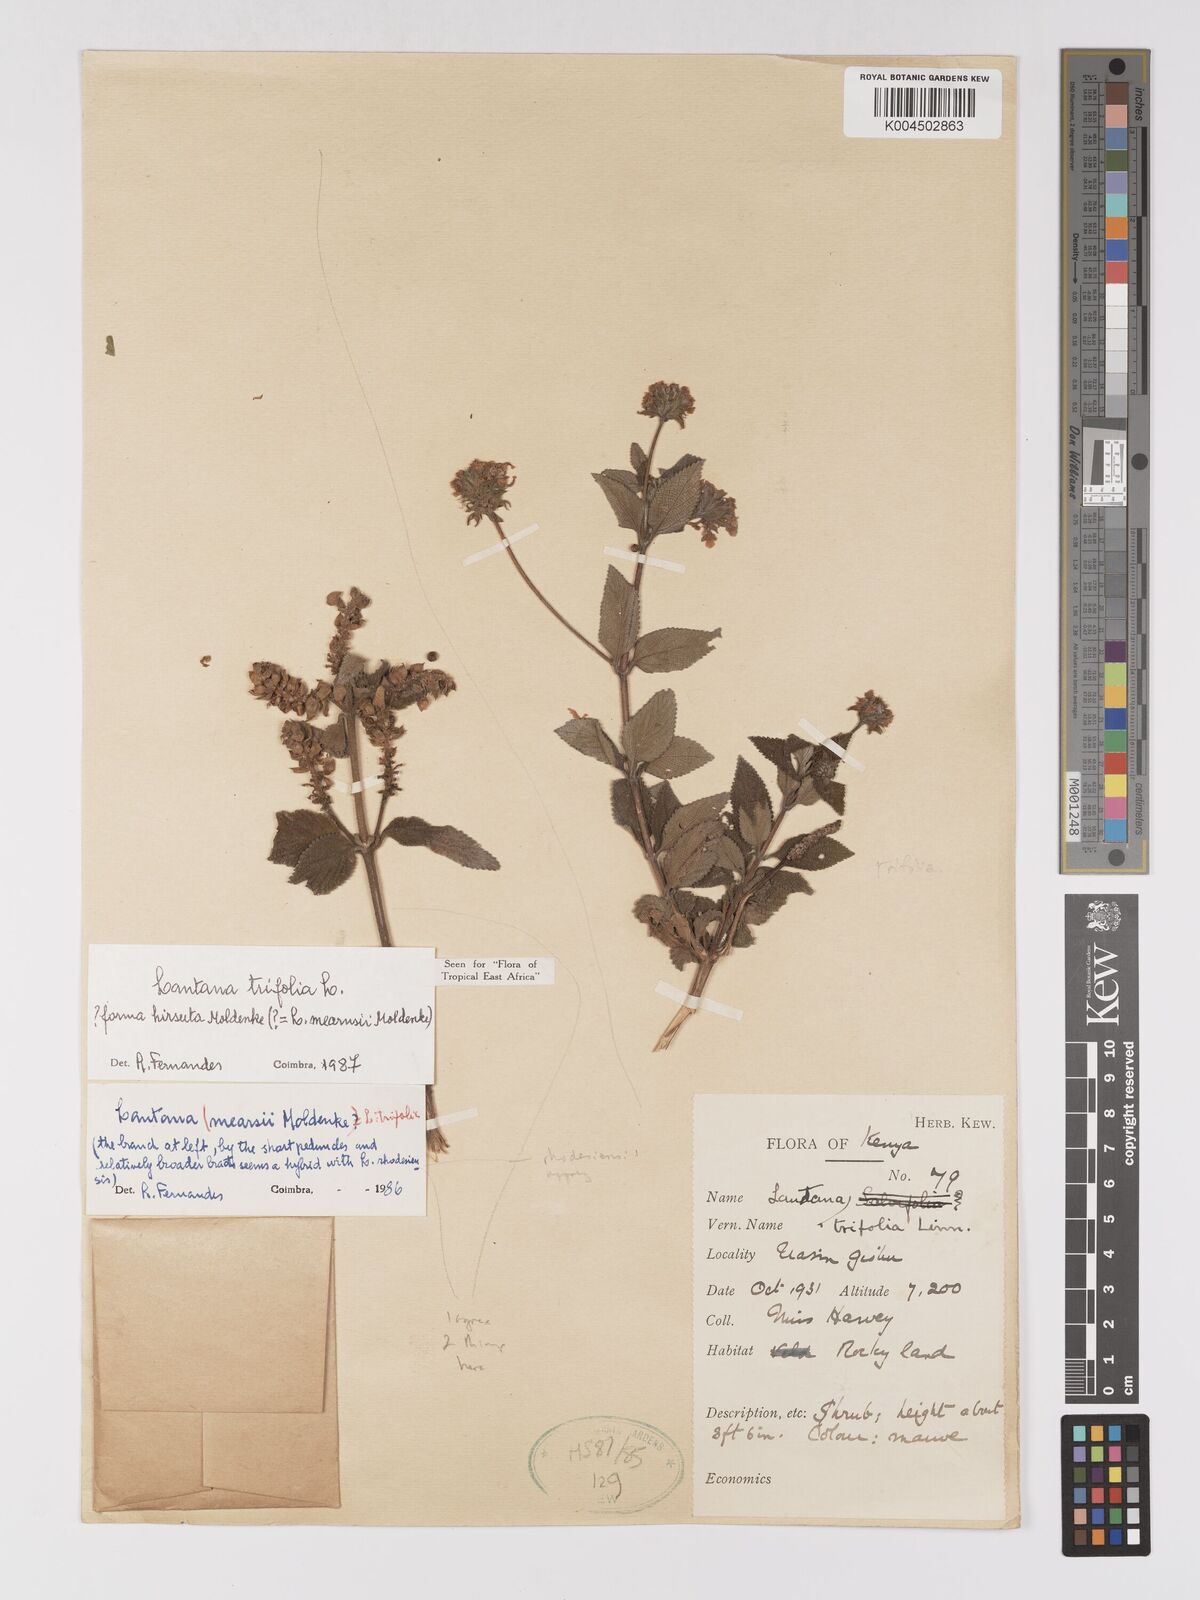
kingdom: Plantae
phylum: Tracheophyta
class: Magnoliopsida
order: Lamiales
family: Verbenaceae
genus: Lantana
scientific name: Lantana trifolia
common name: Sweet-sage
